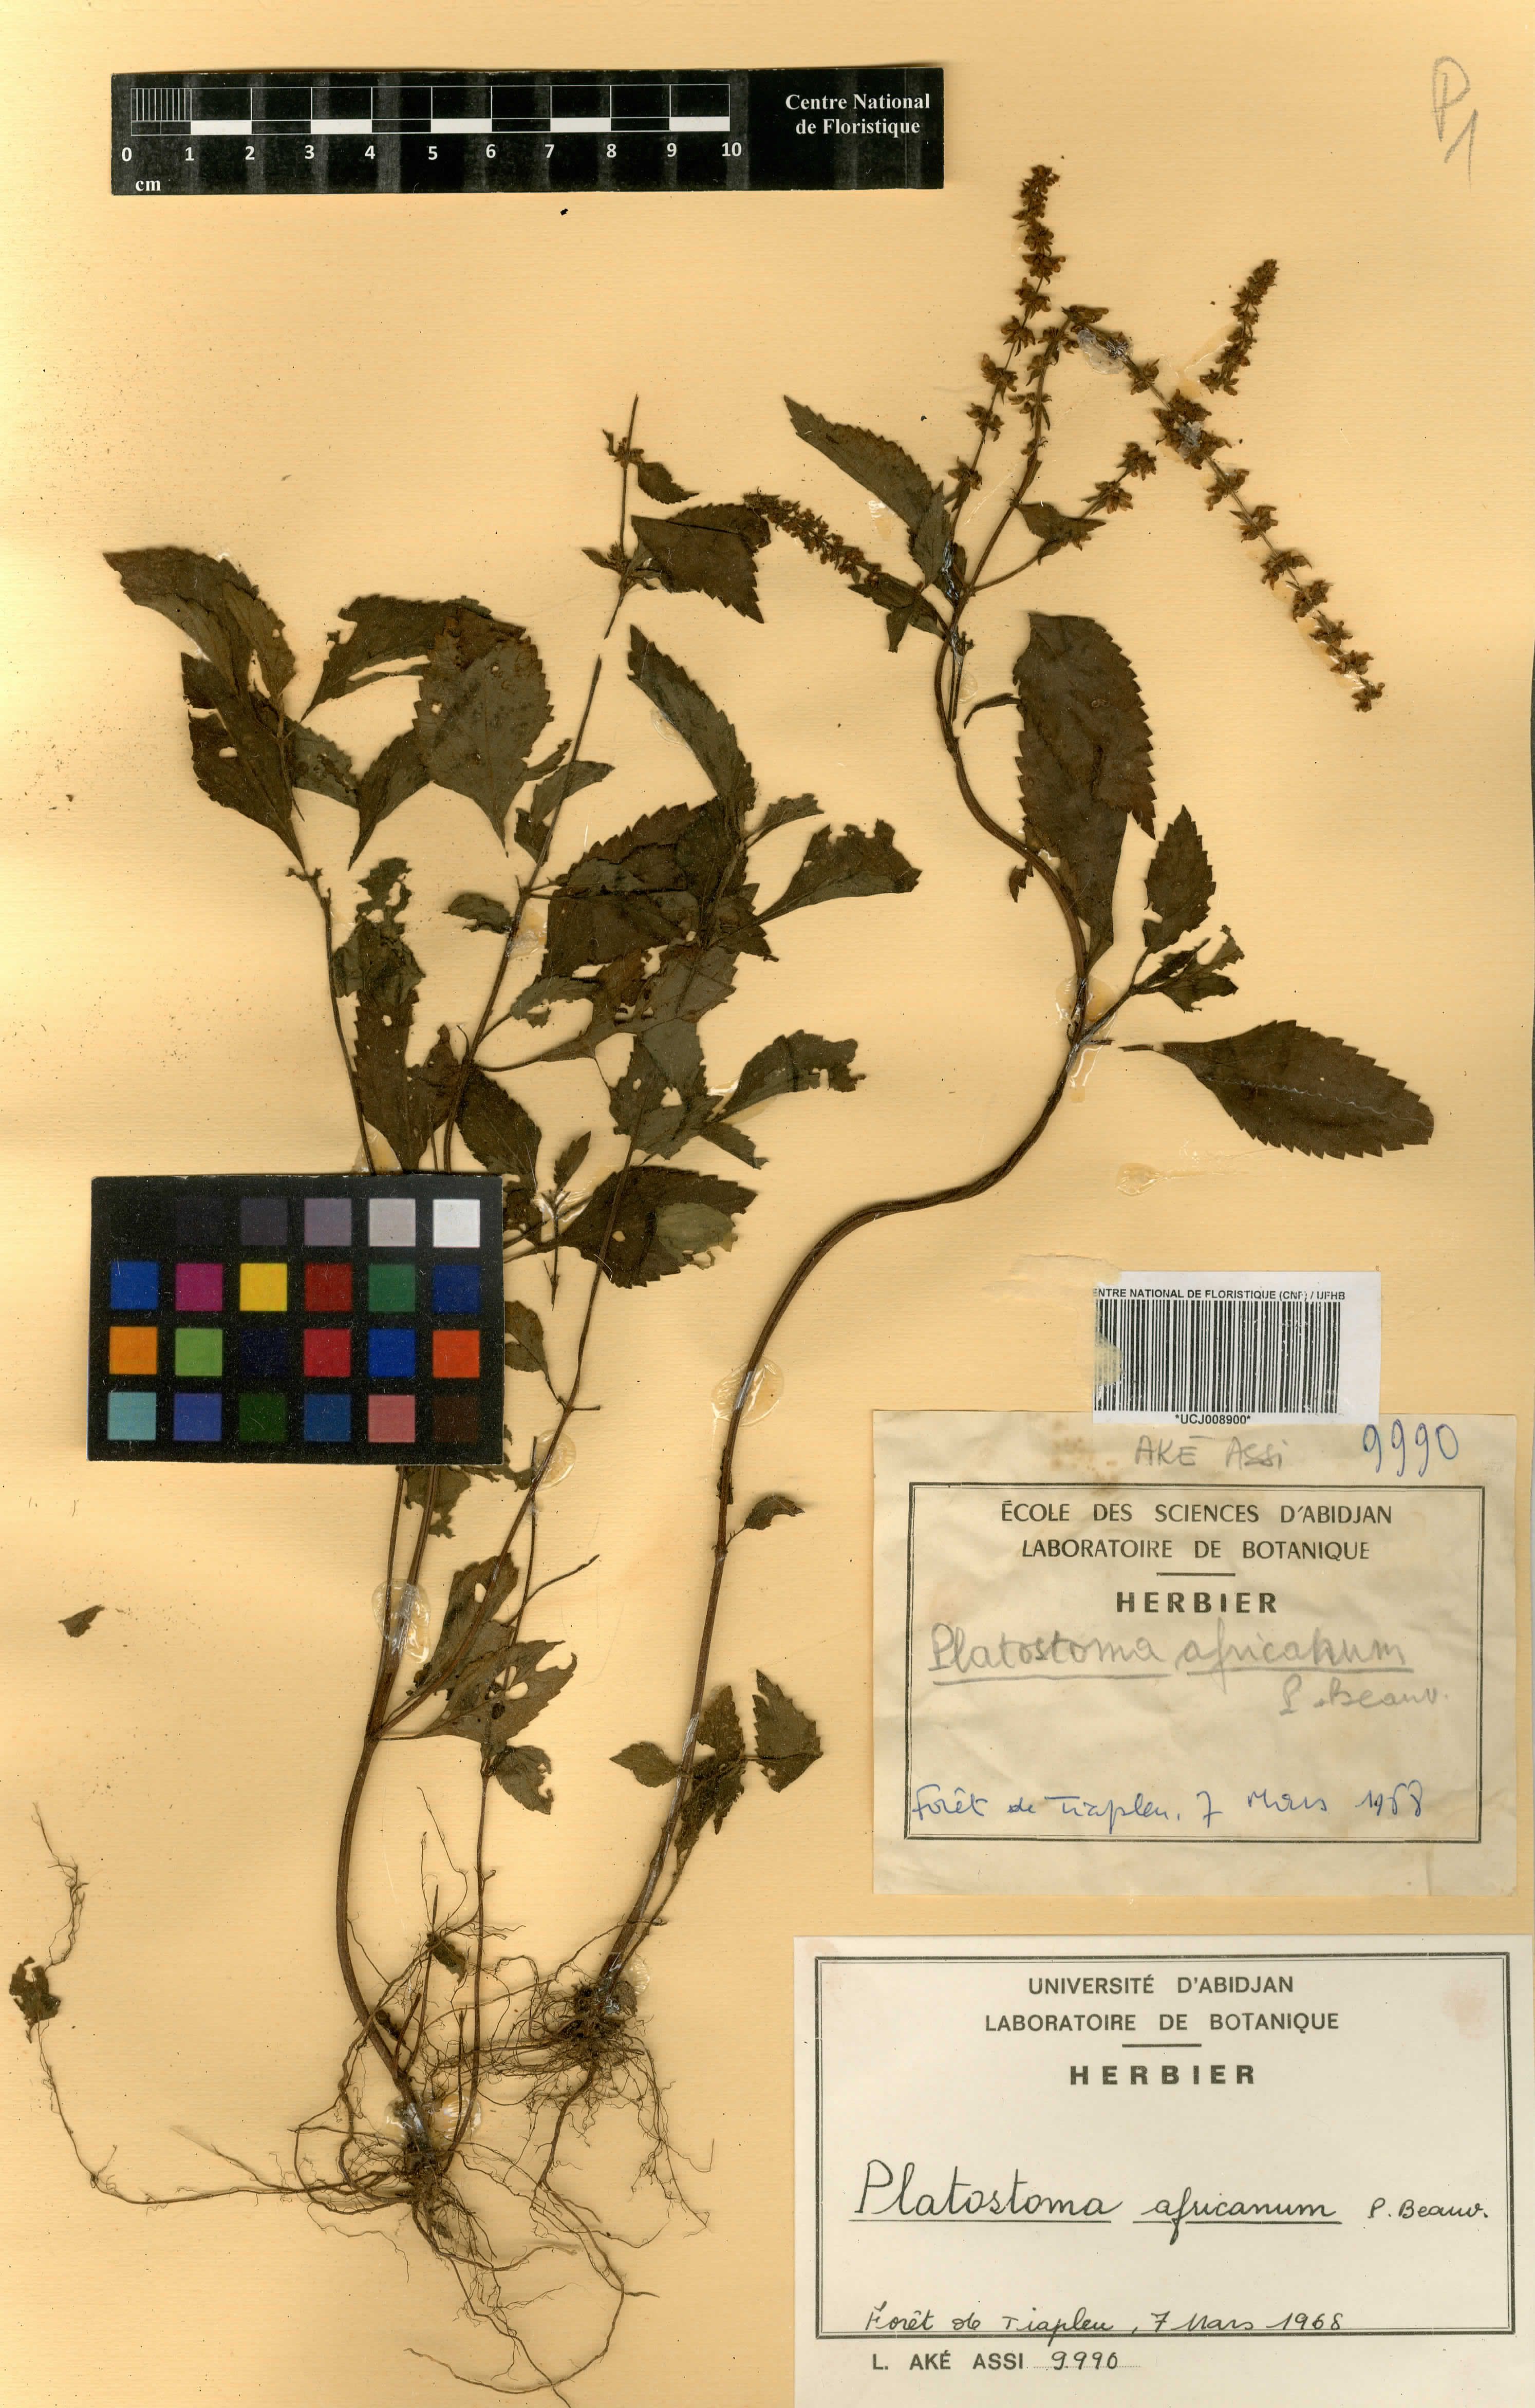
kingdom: Plantae
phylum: Tracheophyta
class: Magnoliopsida
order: Lamiales
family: Lamiaceae
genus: Platostoma
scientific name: Platostoma africanum
